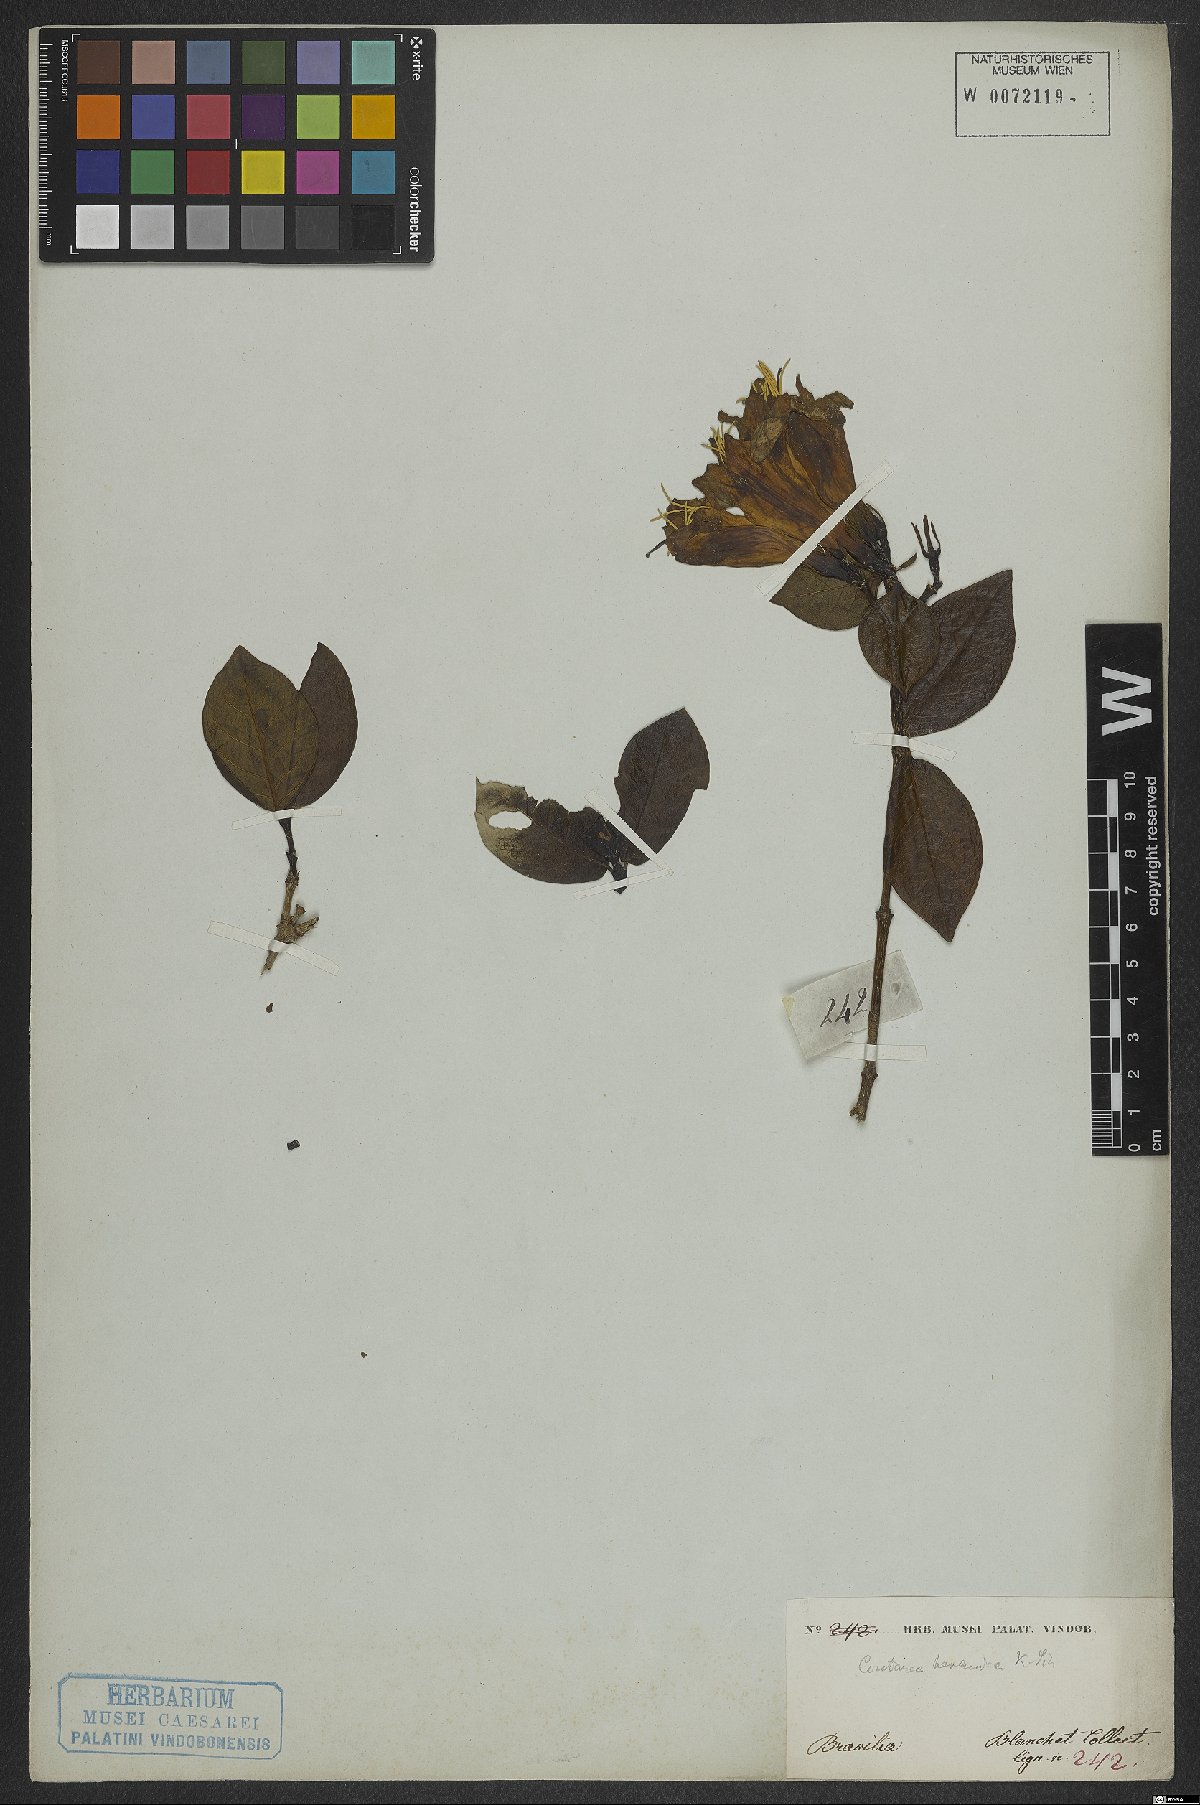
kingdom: Plantae
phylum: Tracheophyta
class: Magnoliopsida
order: Gentianales
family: Rubiaceae
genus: Coutarea
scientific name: Coutarea hexandra
